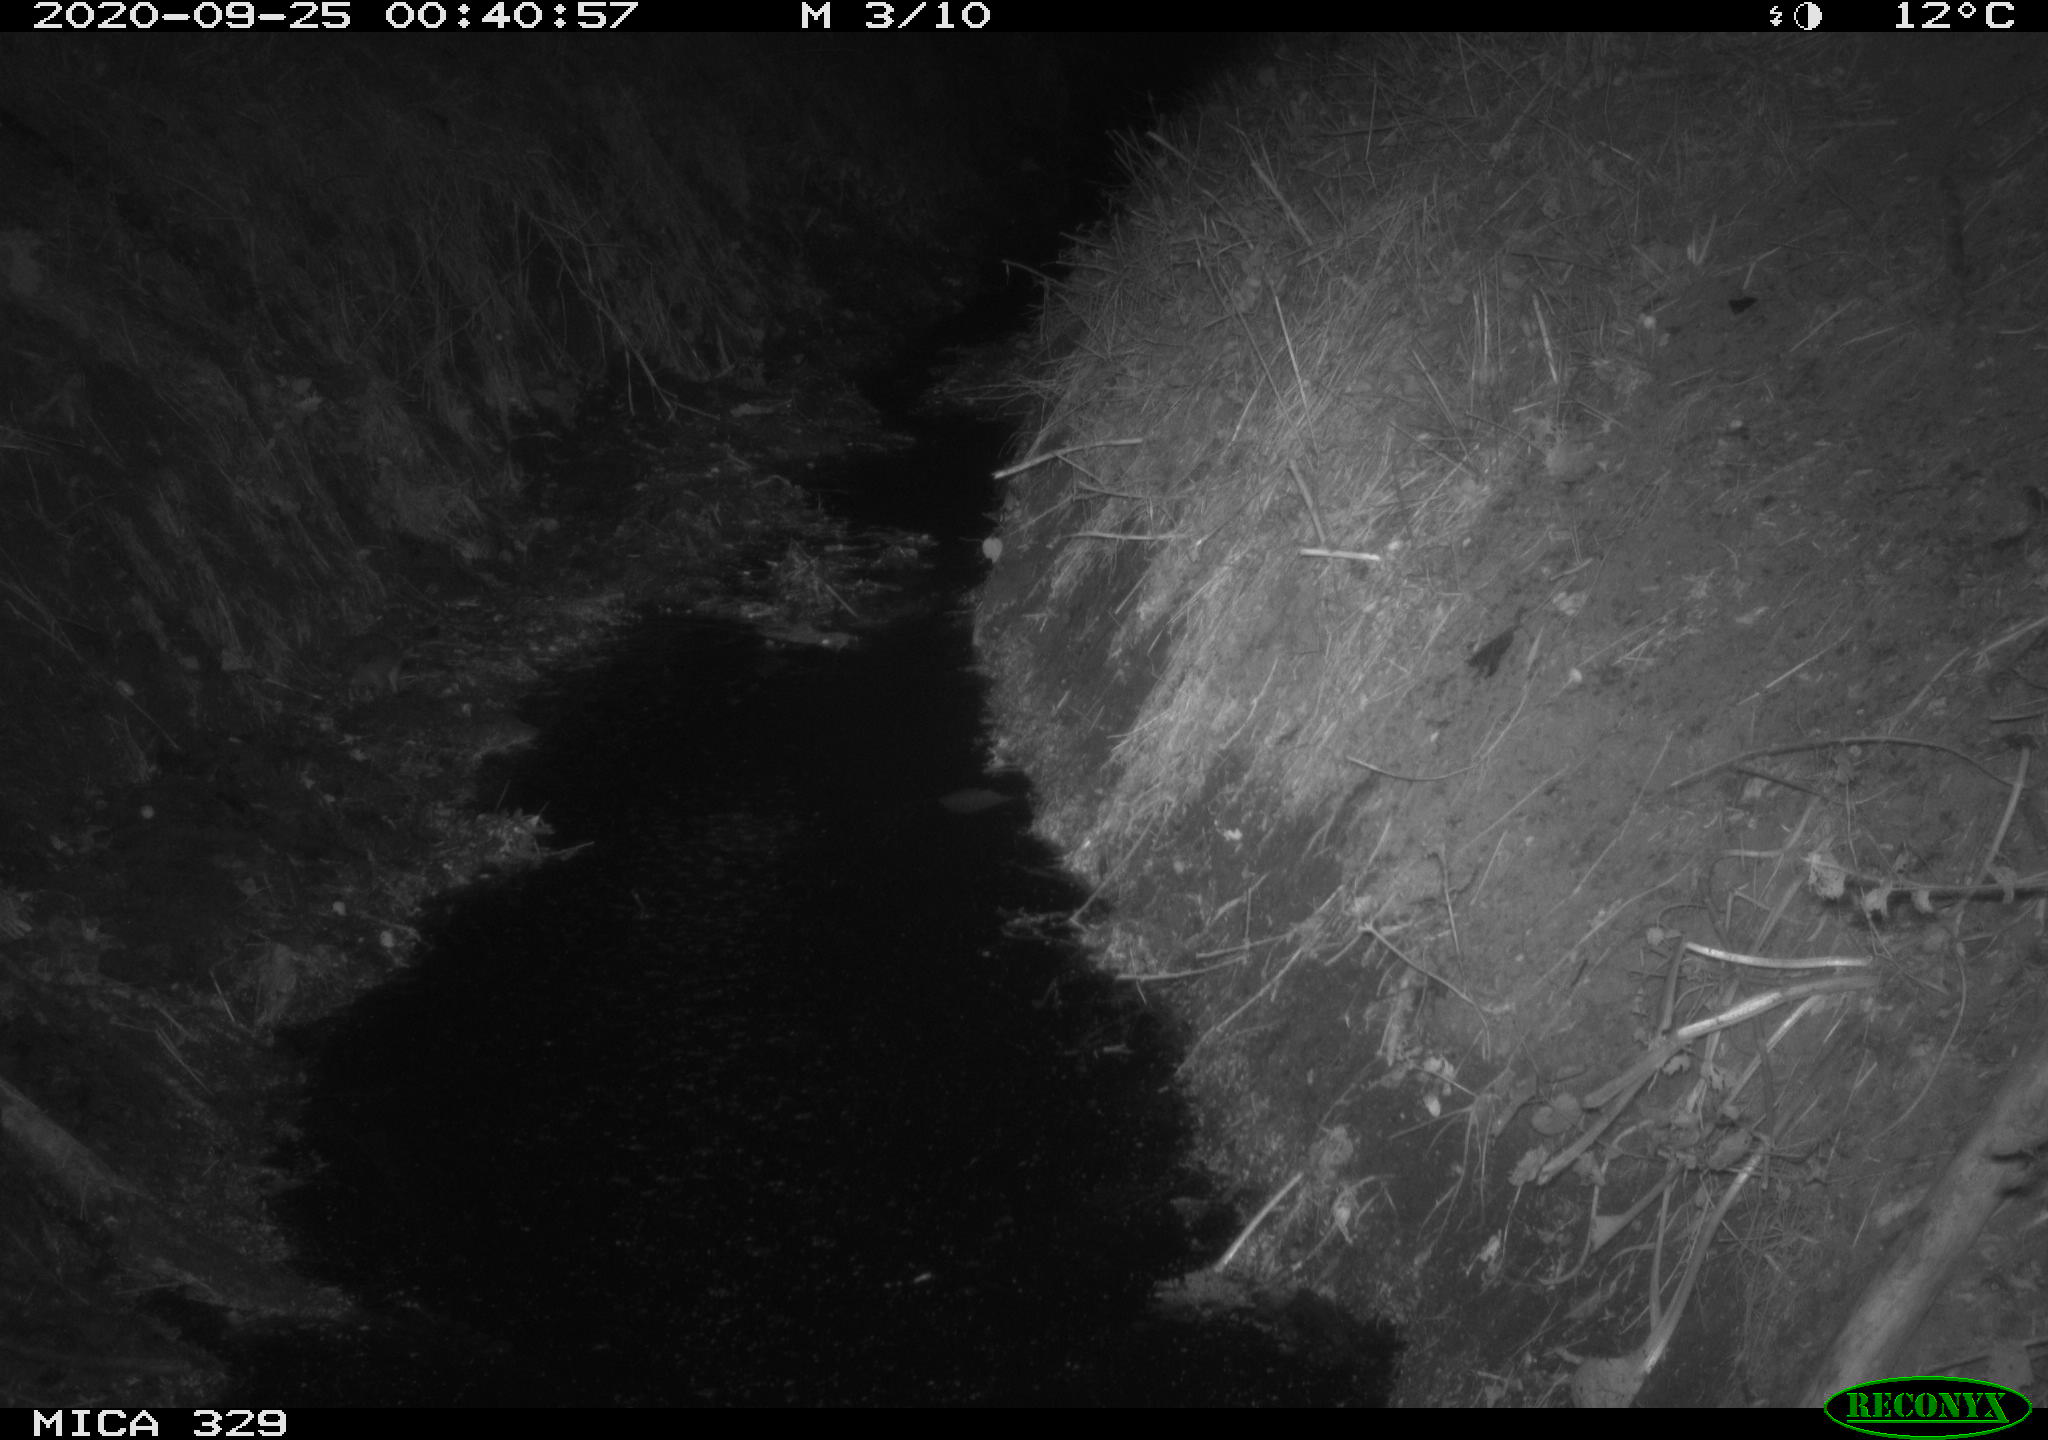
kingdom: Animalia
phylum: Chordata
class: Mammalia
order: Rodentia
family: Muridae
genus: Rattus
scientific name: Rattus norvegicus
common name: Brown rat
